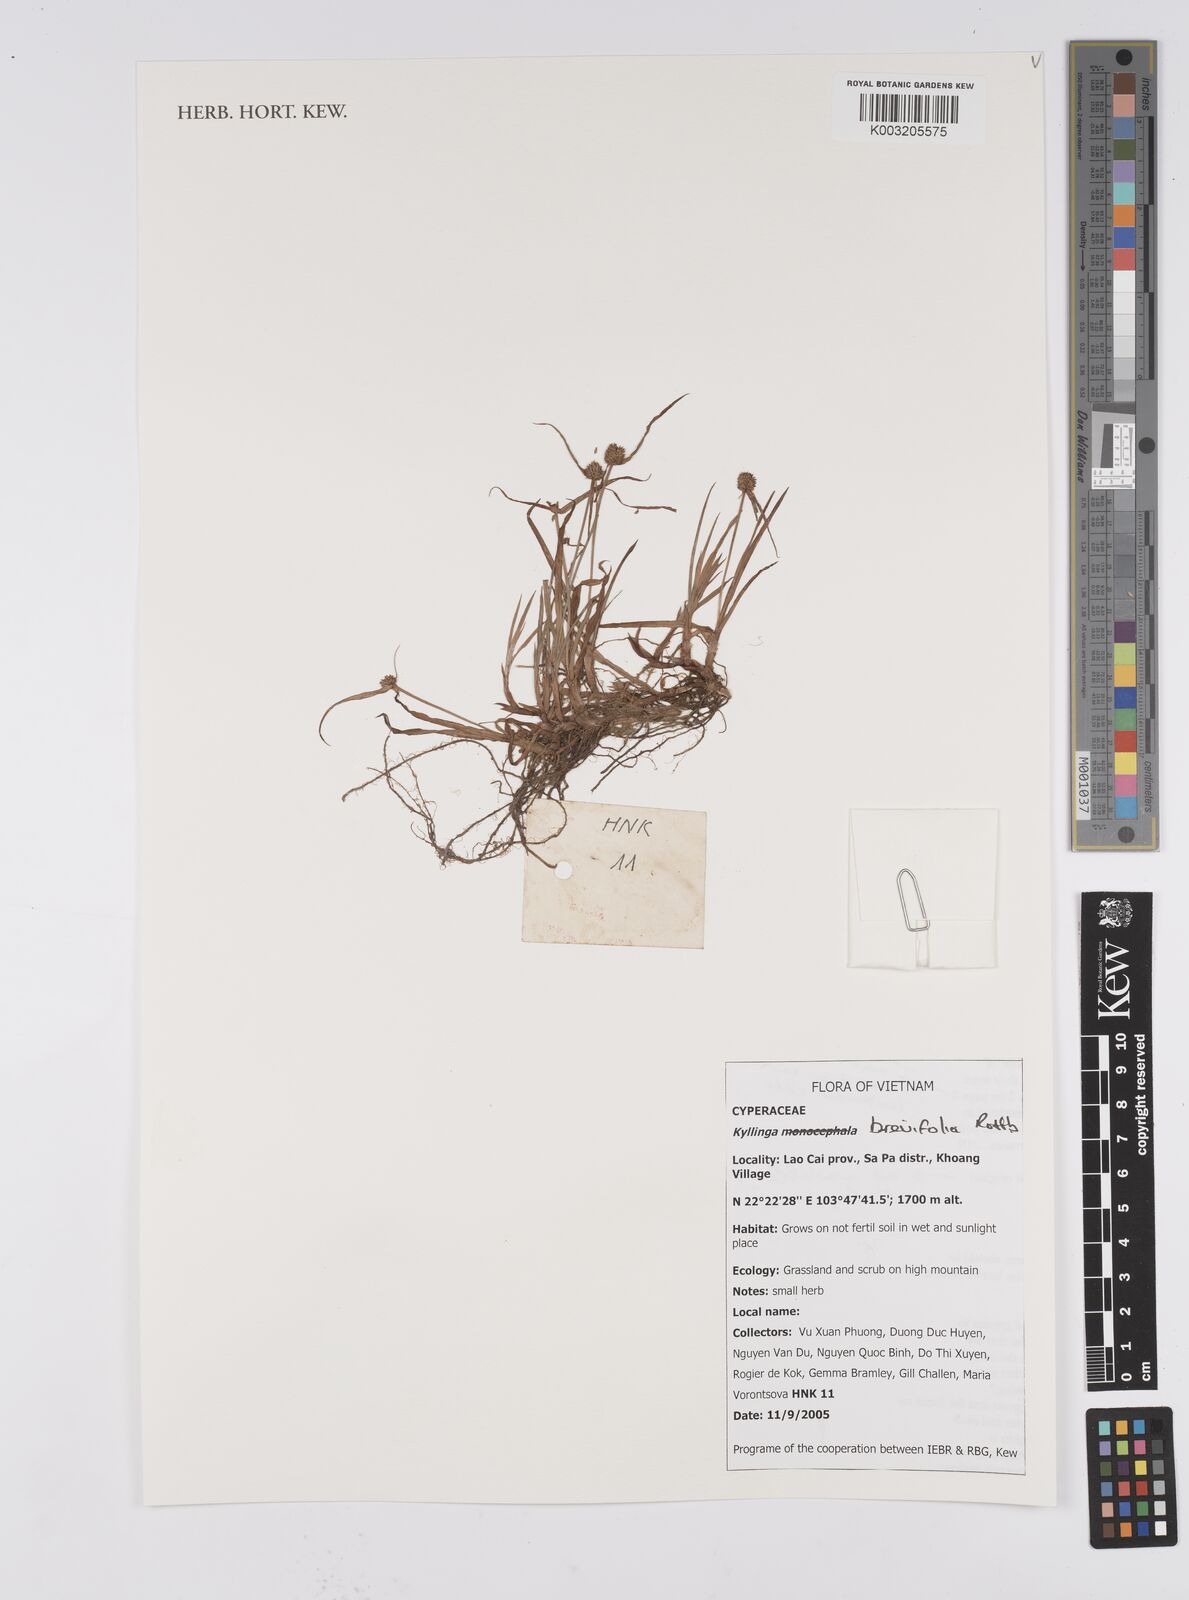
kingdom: Plantae
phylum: Tracheophyta
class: Liliopsida
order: Poales
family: Cyperaceae
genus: Cyperus
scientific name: Cyperus brevifolius
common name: Globe kyllinga
